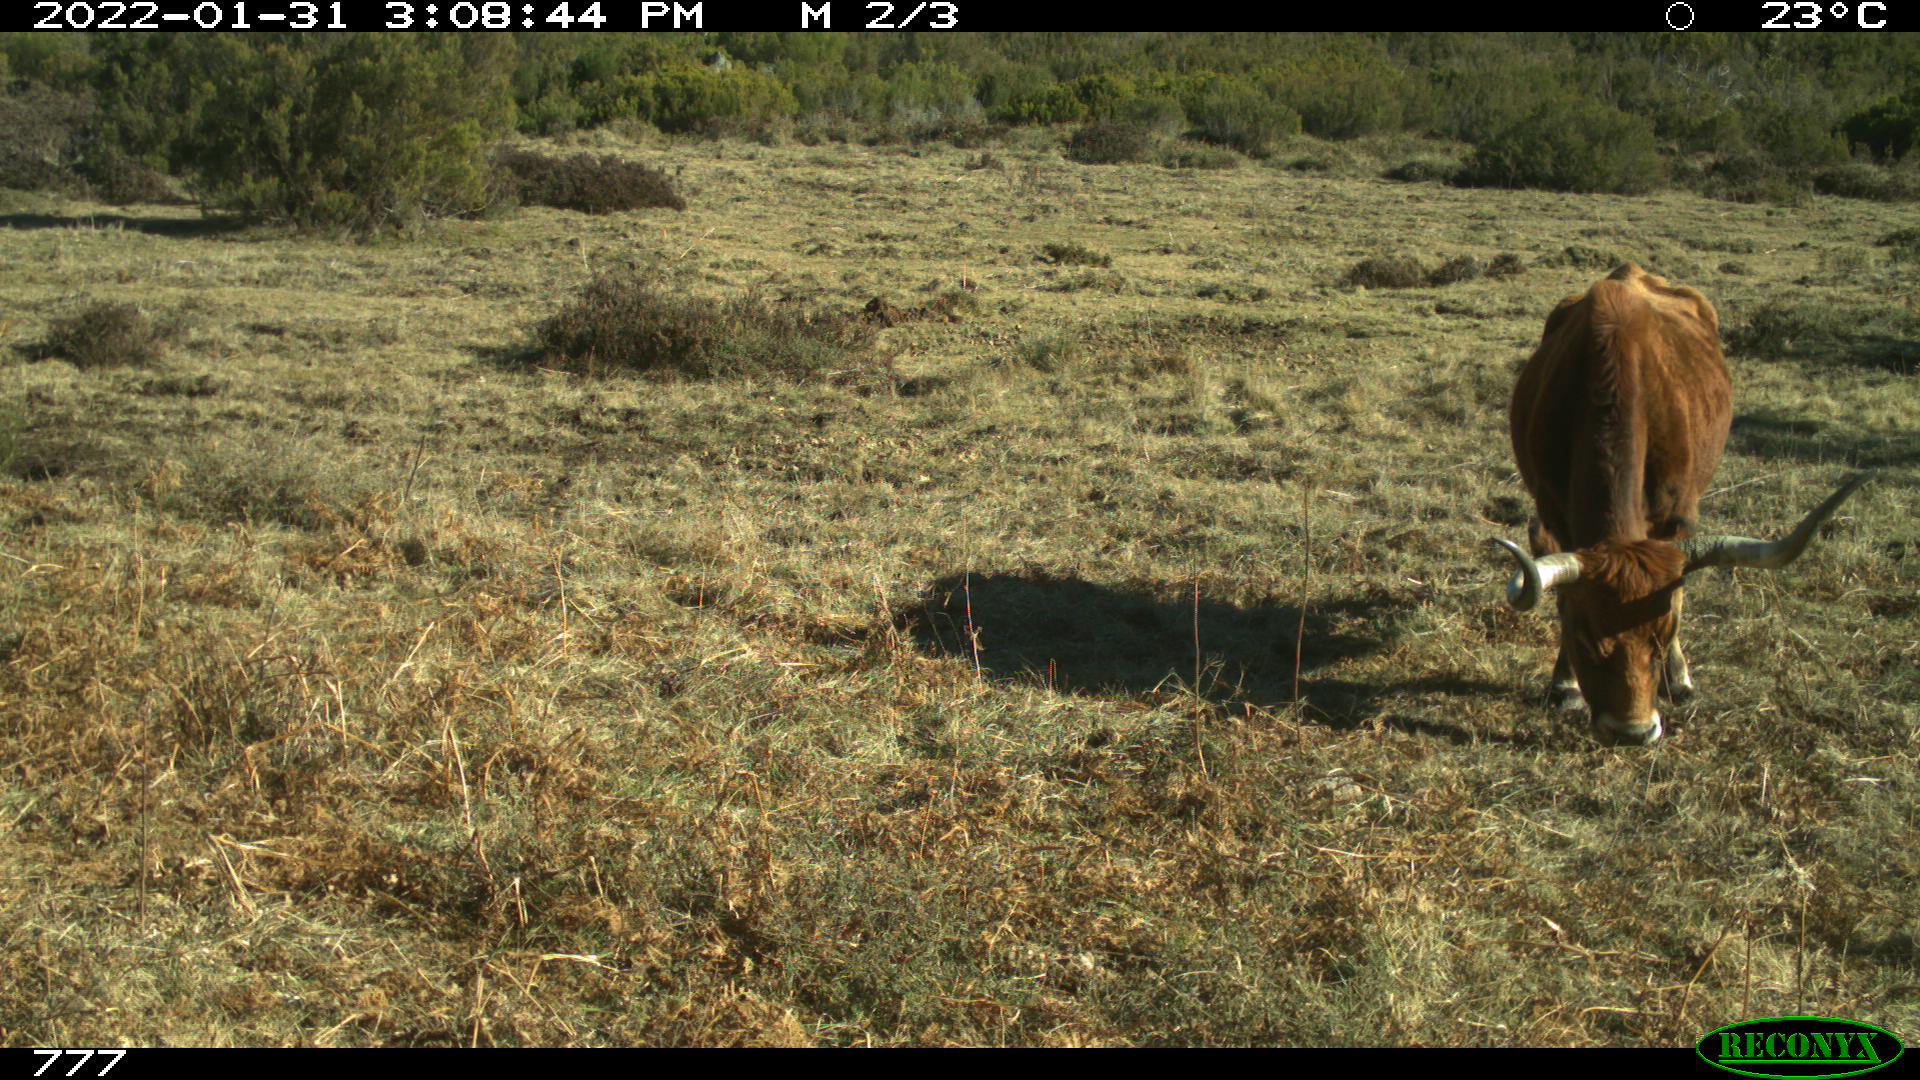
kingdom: Animalia
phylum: Chordata
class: Mammalia
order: Artiodactyla
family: Bovidae
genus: Bos
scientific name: Bos taurus
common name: Domesticated cattle
